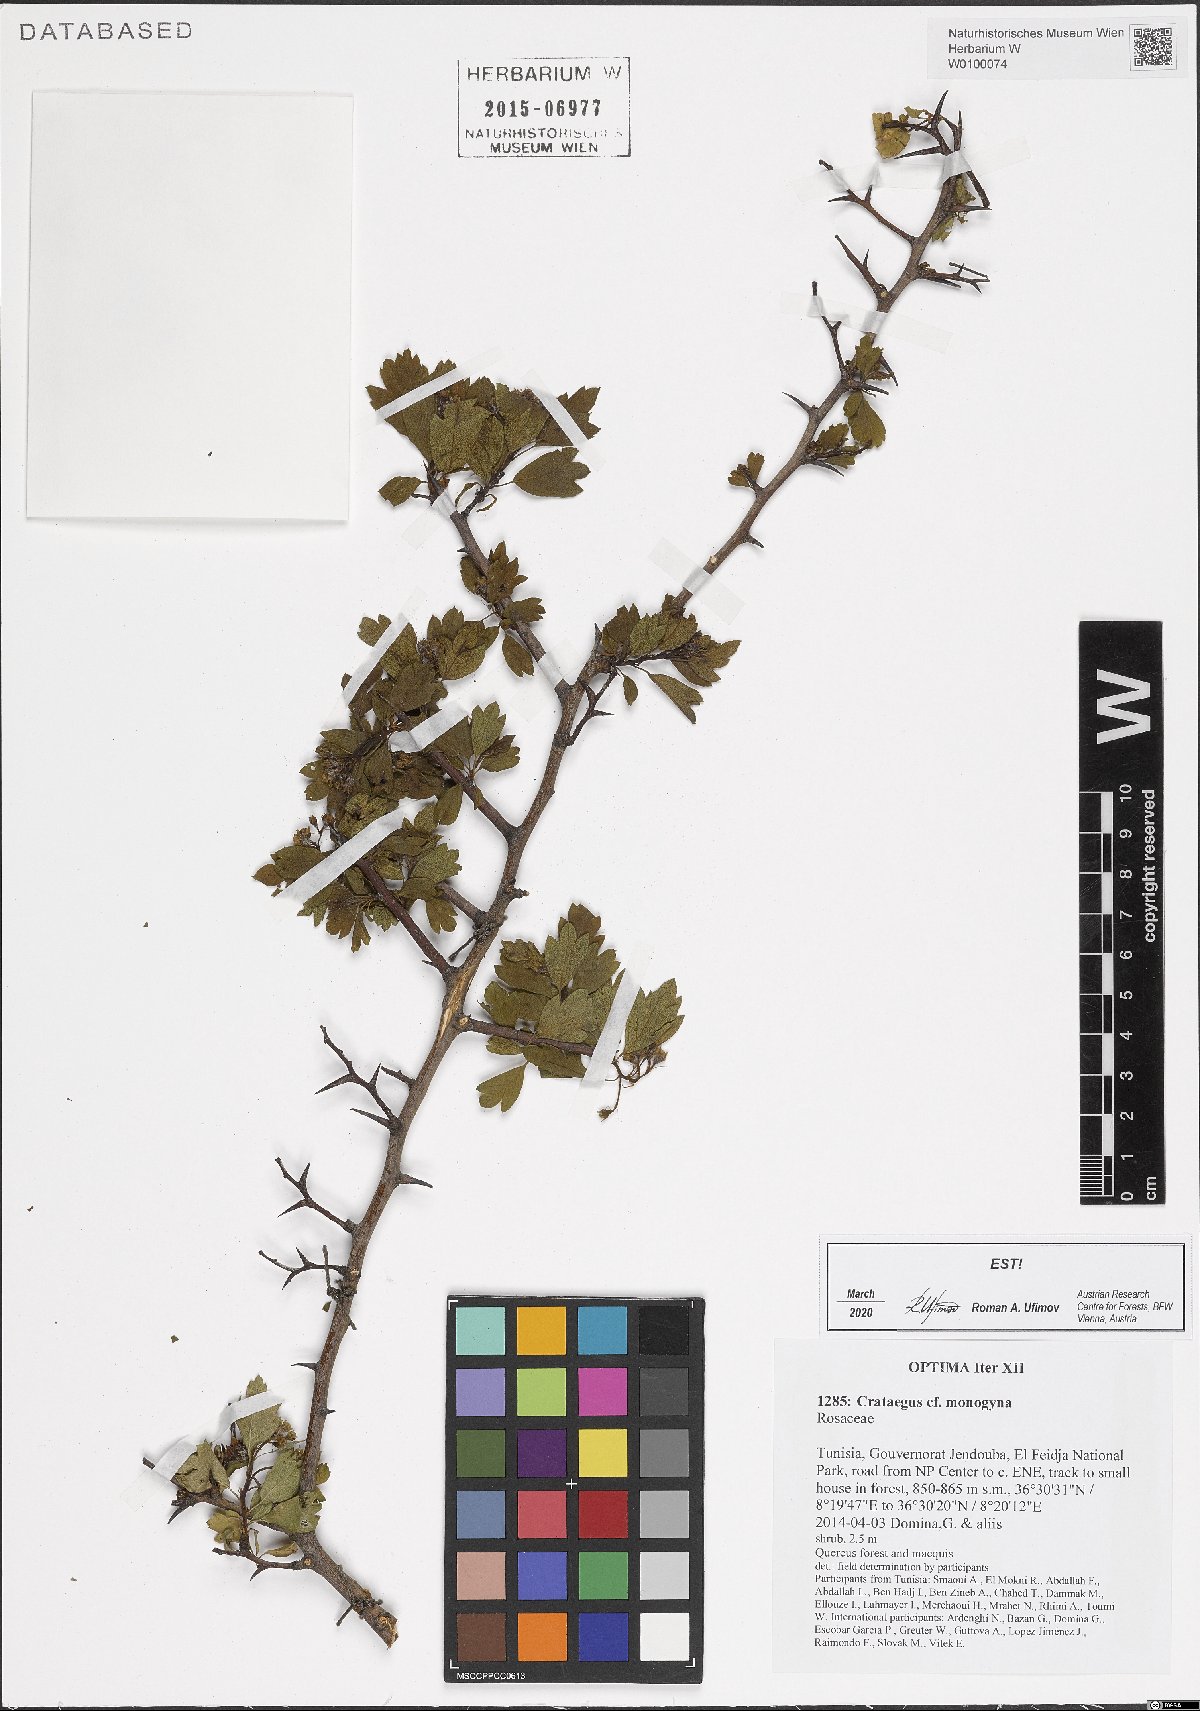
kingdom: Plantae
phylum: Tracheophyta
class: Magnoliopsida
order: Rosales
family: Rosaceae
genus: Crataegus
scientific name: Crataegus monogyna
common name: Hawthorn
